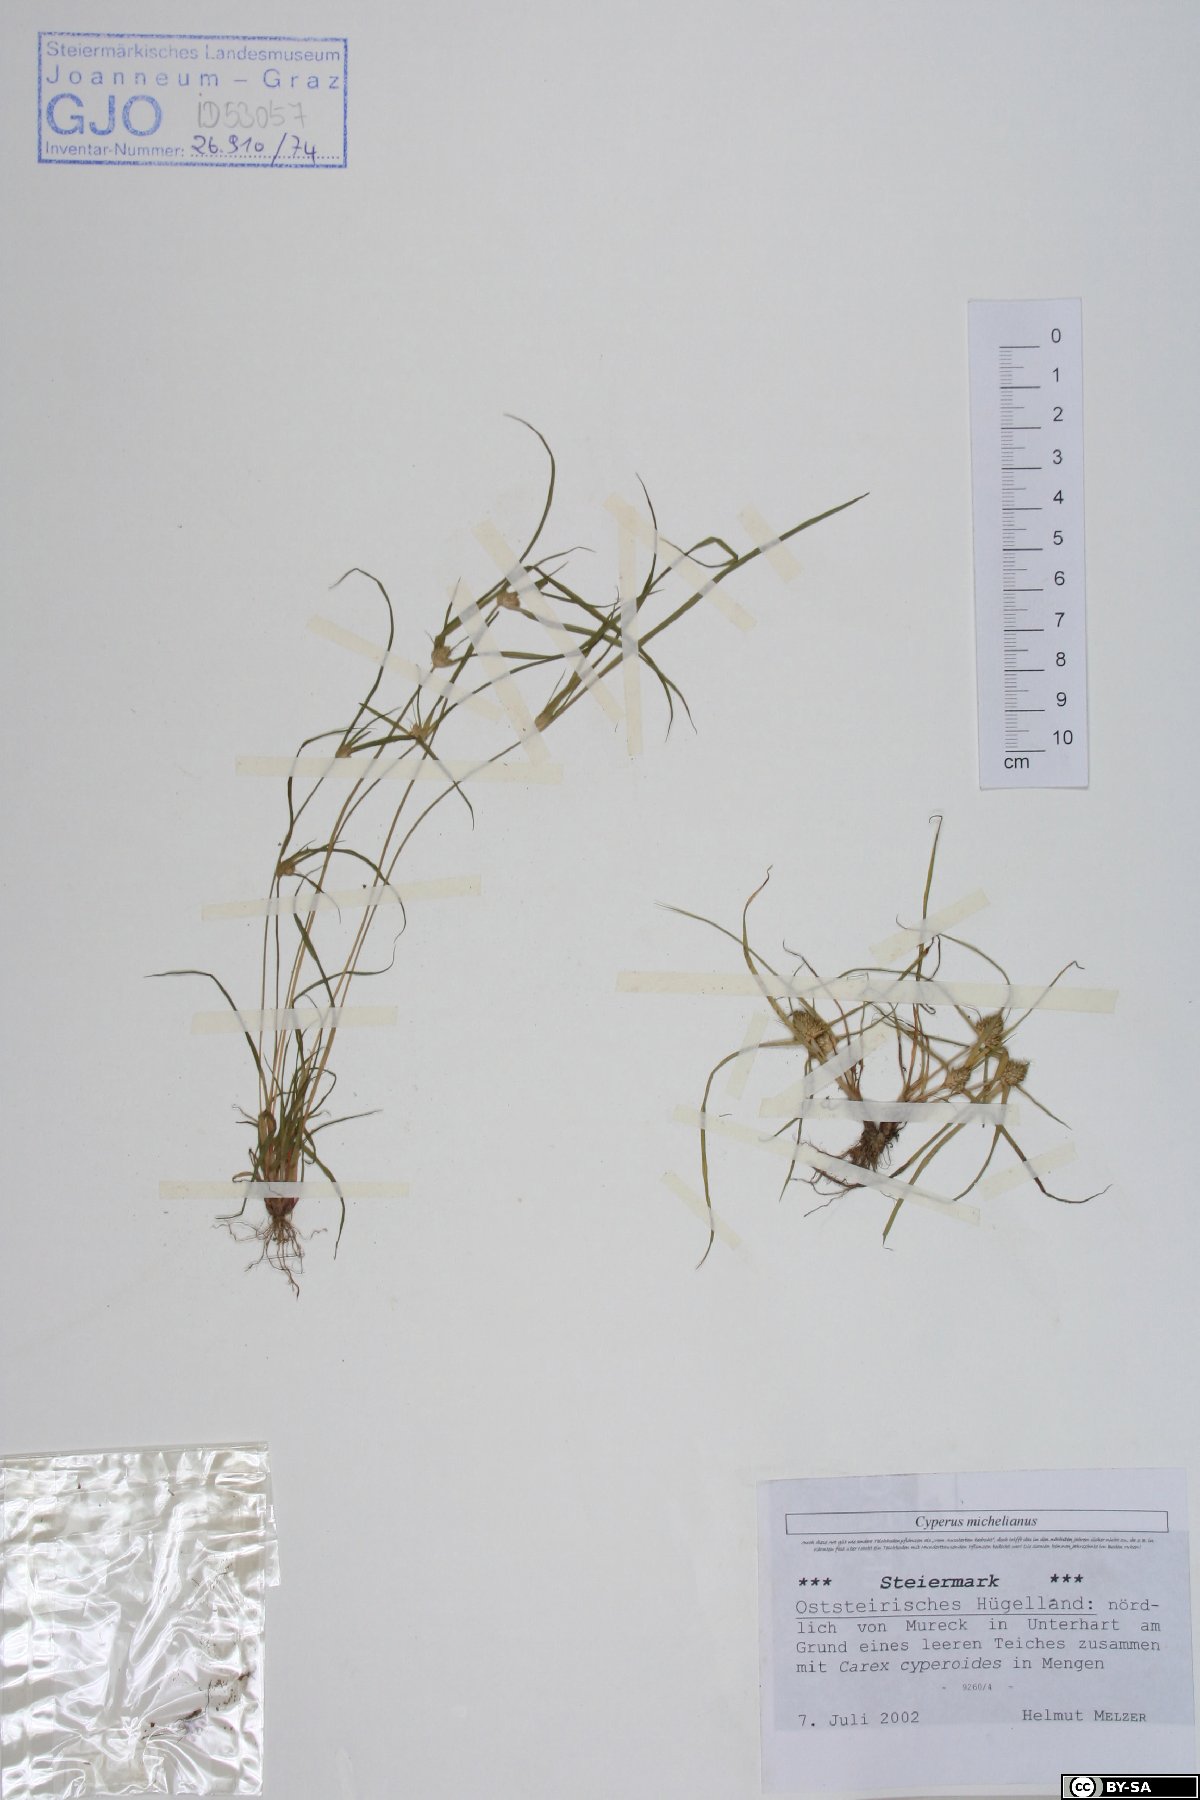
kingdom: Plantae
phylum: Tracheophyta
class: Liliopsida
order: Poales
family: Cyperaceae
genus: Cyperus
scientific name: Cyperus michelianus
